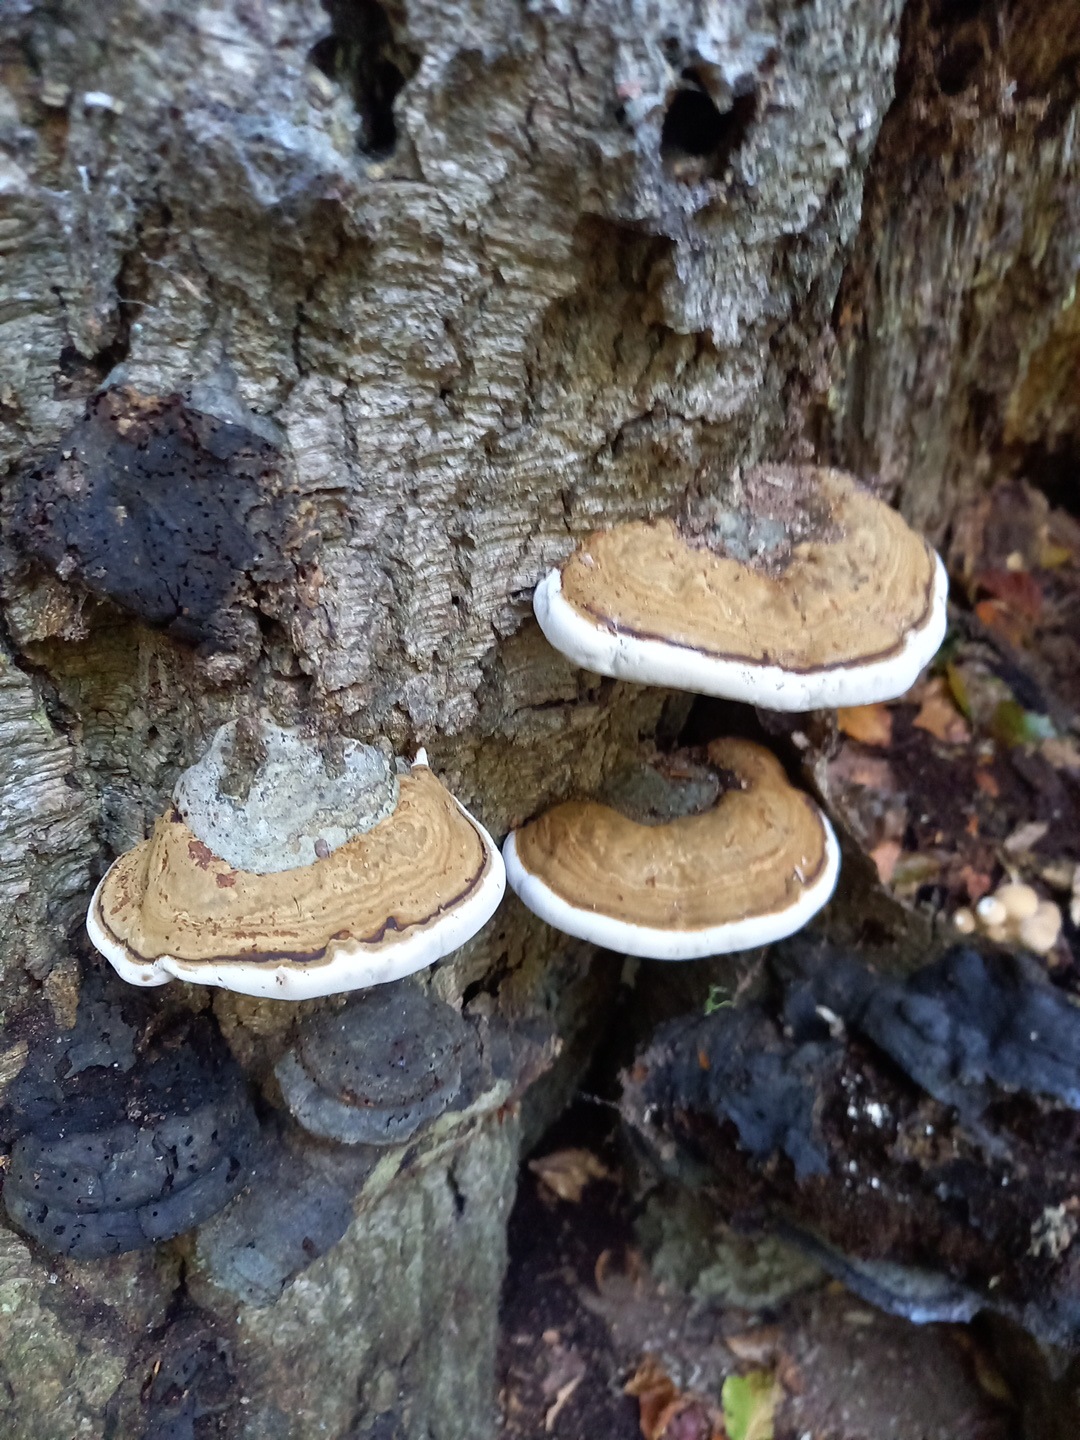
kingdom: Fungi
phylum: Basidiomycota
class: Agaricomycetes
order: Polyporales
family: Polyporaceae
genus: Fomes
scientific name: Fomes fomentarius
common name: tøndersvamp
